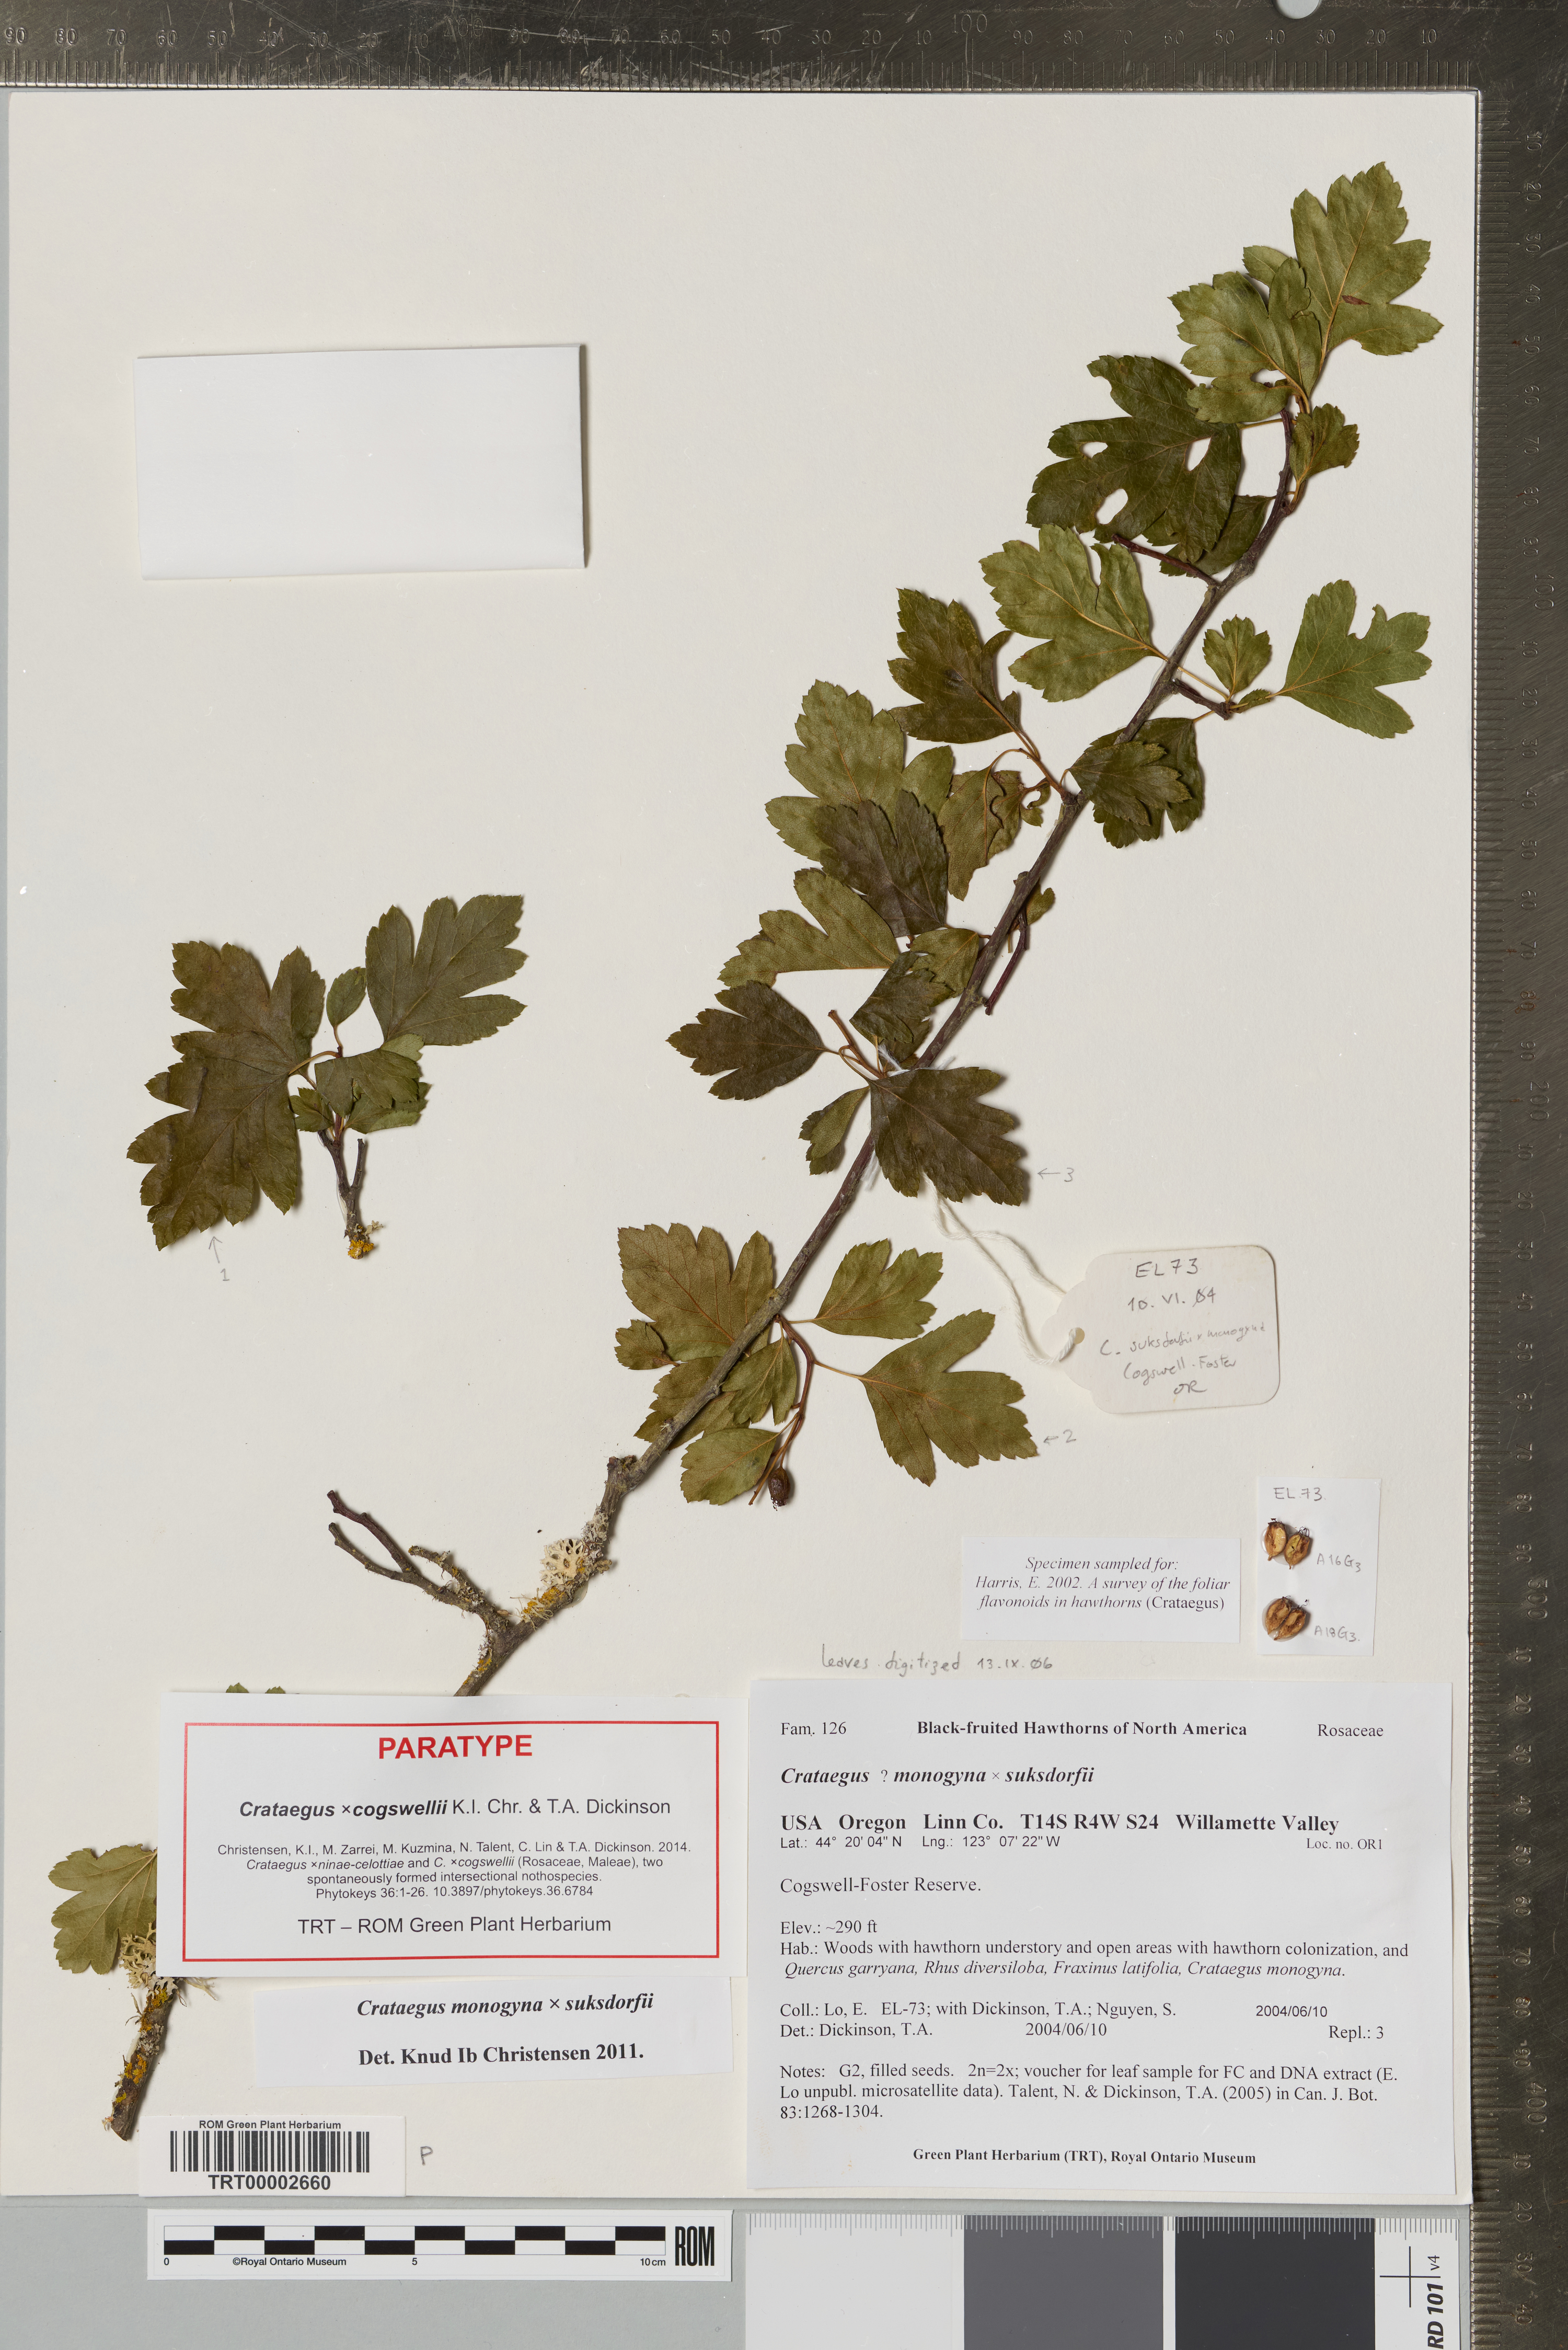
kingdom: Plantae
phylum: Tracheophyta
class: Magnoliopsida
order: Rosales
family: Rosaceae
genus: Crataegus
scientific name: Crataegus
